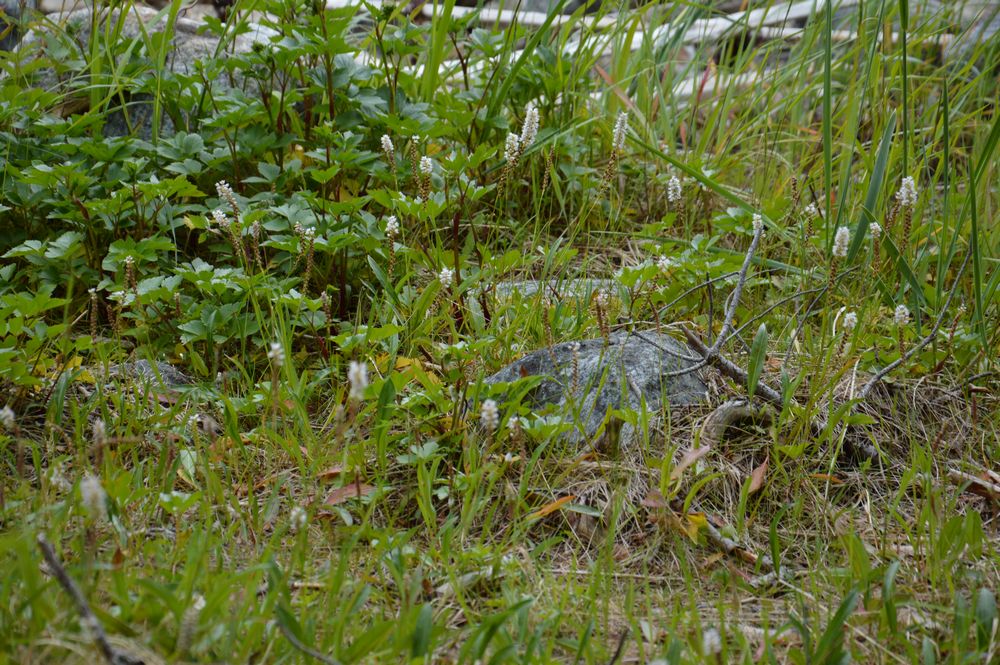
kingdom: Plantae
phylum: Tracheophyta
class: Magnoliopsida
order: Caryophyllales
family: Polygonaceae
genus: Bistorta
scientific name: Bistorta vivipara
